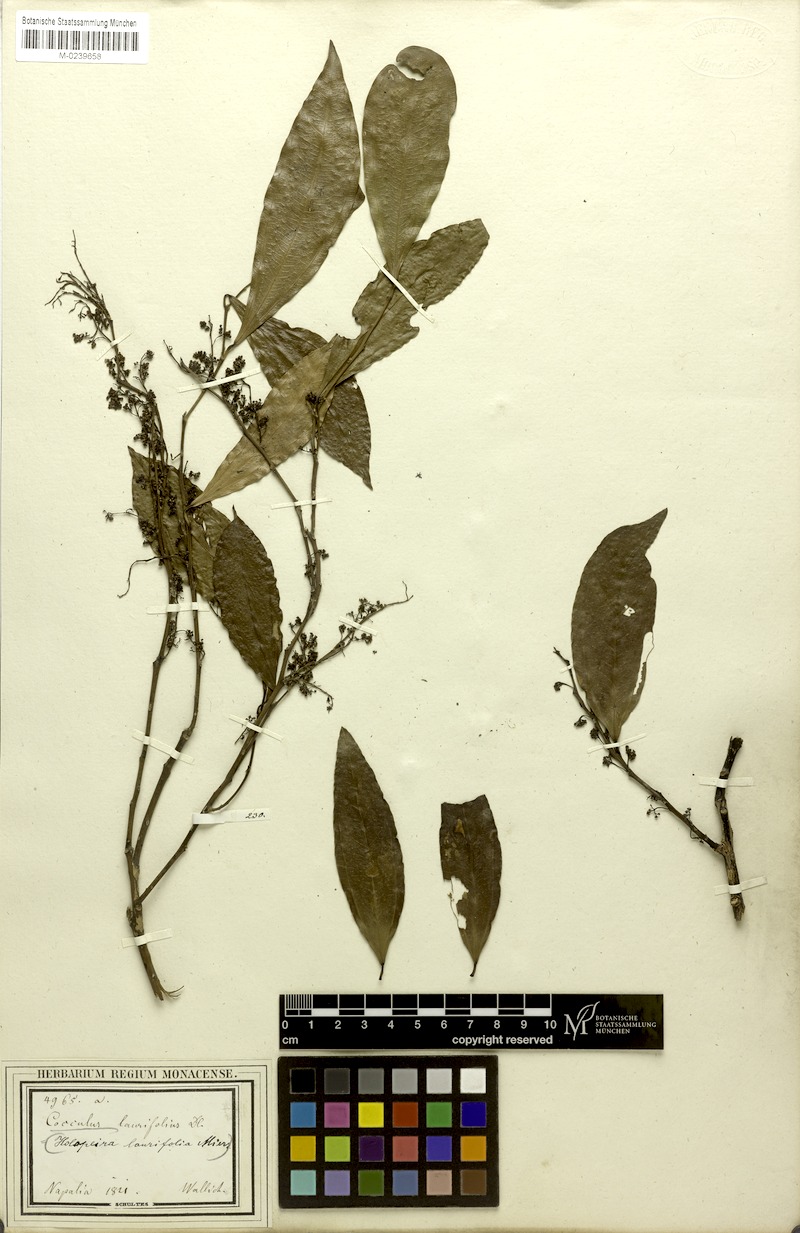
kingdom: Plantae
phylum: Tracheophyta
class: Magnoliopsida
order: Ranunculales
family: Menispermaceae
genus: Cocculus
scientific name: Cocculus laurifolius
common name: Laurel-leaf snailseed
